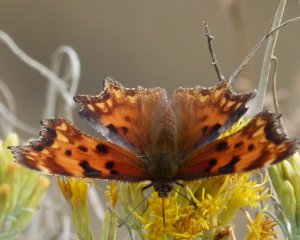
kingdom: Animalia
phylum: Arthropoda
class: Insecta
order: Lepidoptera
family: Nymphalidae
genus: Polygonia
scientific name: Polygonia gracilis
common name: Hoary Comma
